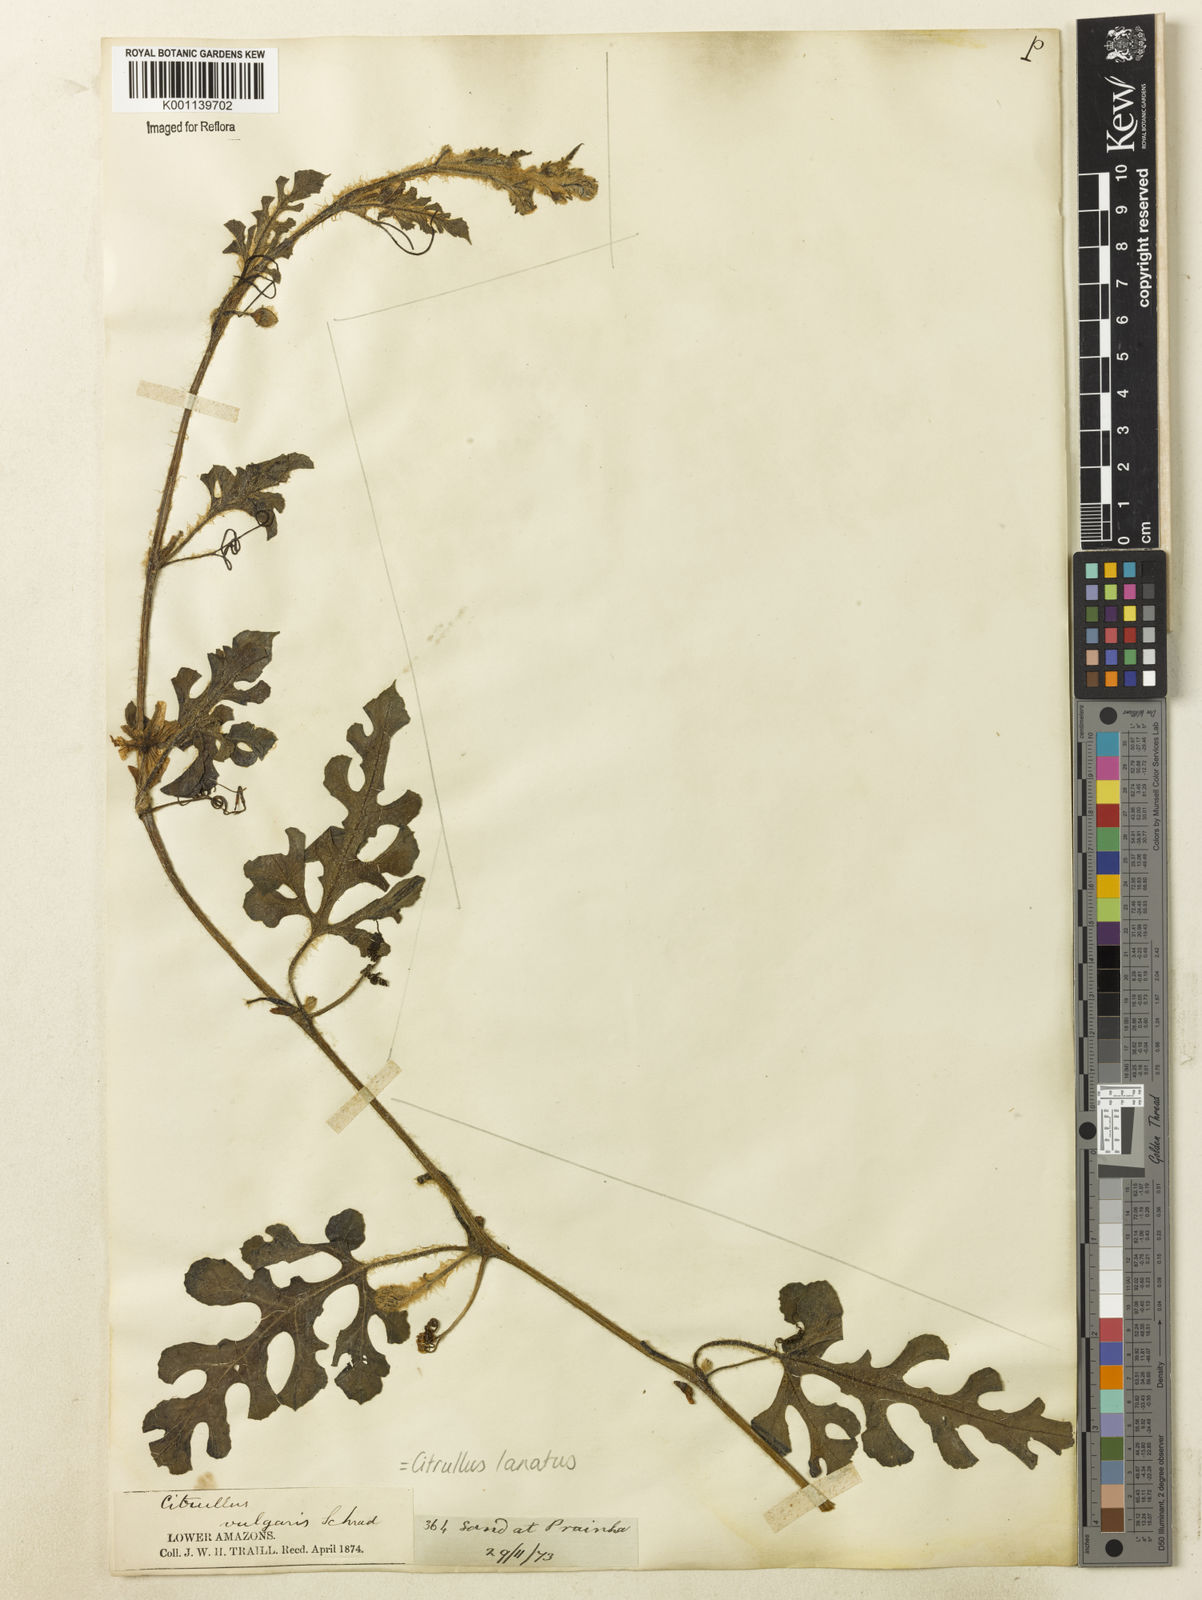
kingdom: Plantae
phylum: Tracheophyta
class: Magnoliopsida
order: Cucurbitales
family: Cucurbitaceae
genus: Citrullus
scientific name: Citrullus lanatus
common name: Watermelon
